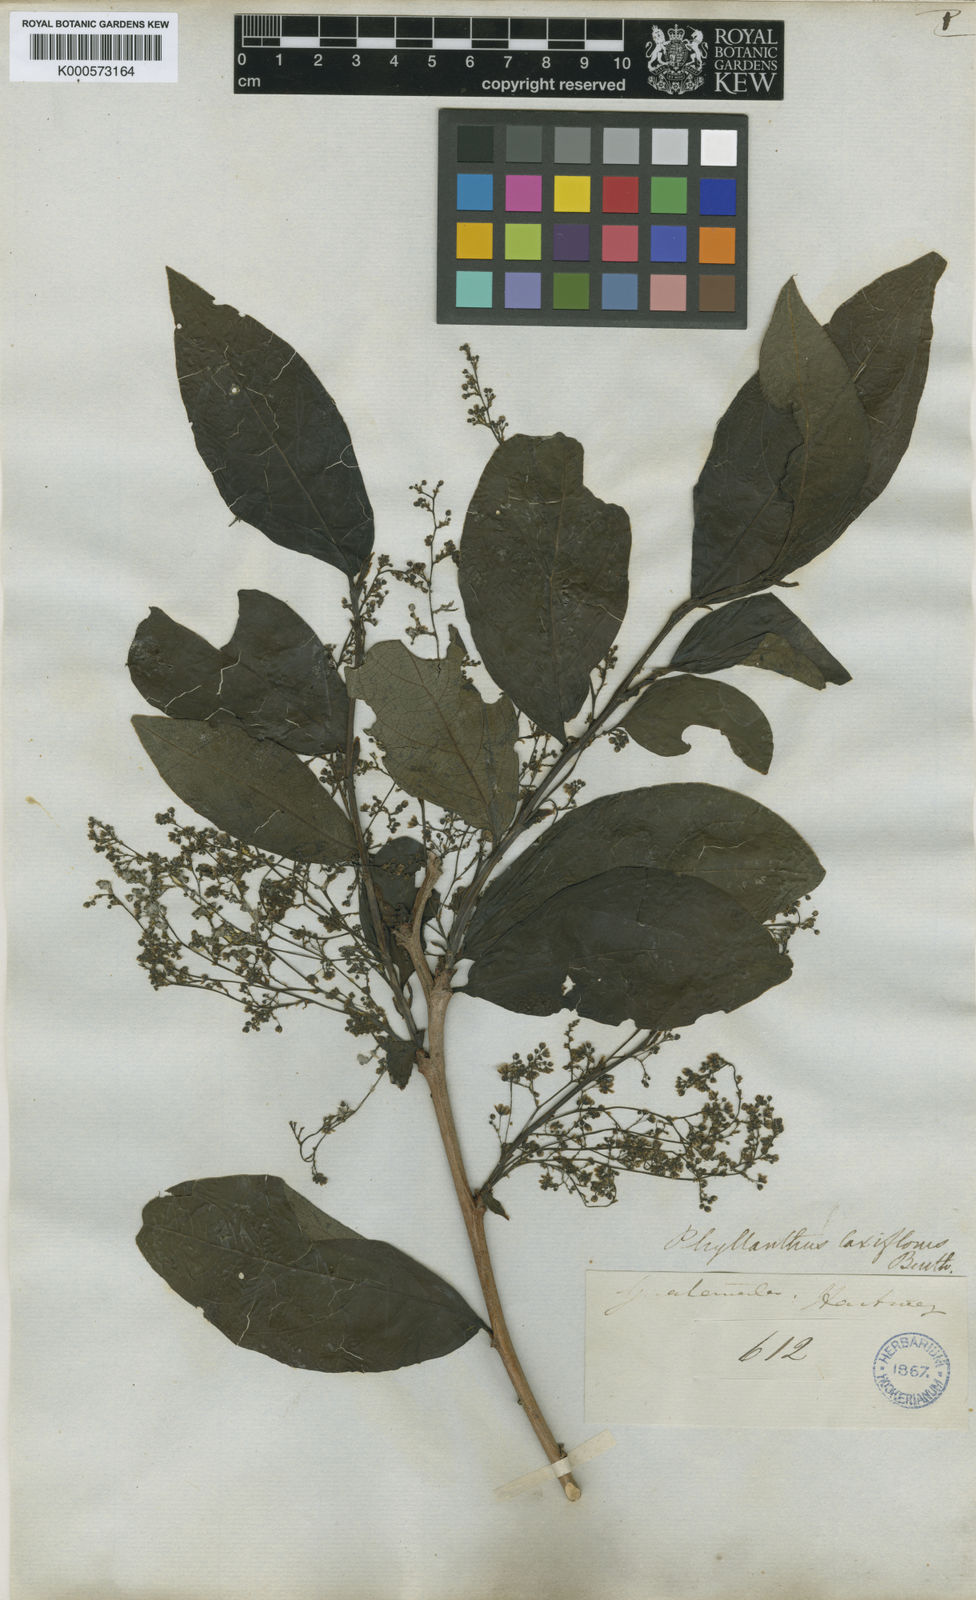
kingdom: Plantae
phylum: Tracheophyta
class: Magnoliopsida
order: Malpighiales
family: Phyllanthaceae
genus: Phyllanthus
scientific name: Phyllanthus laxiflorus
